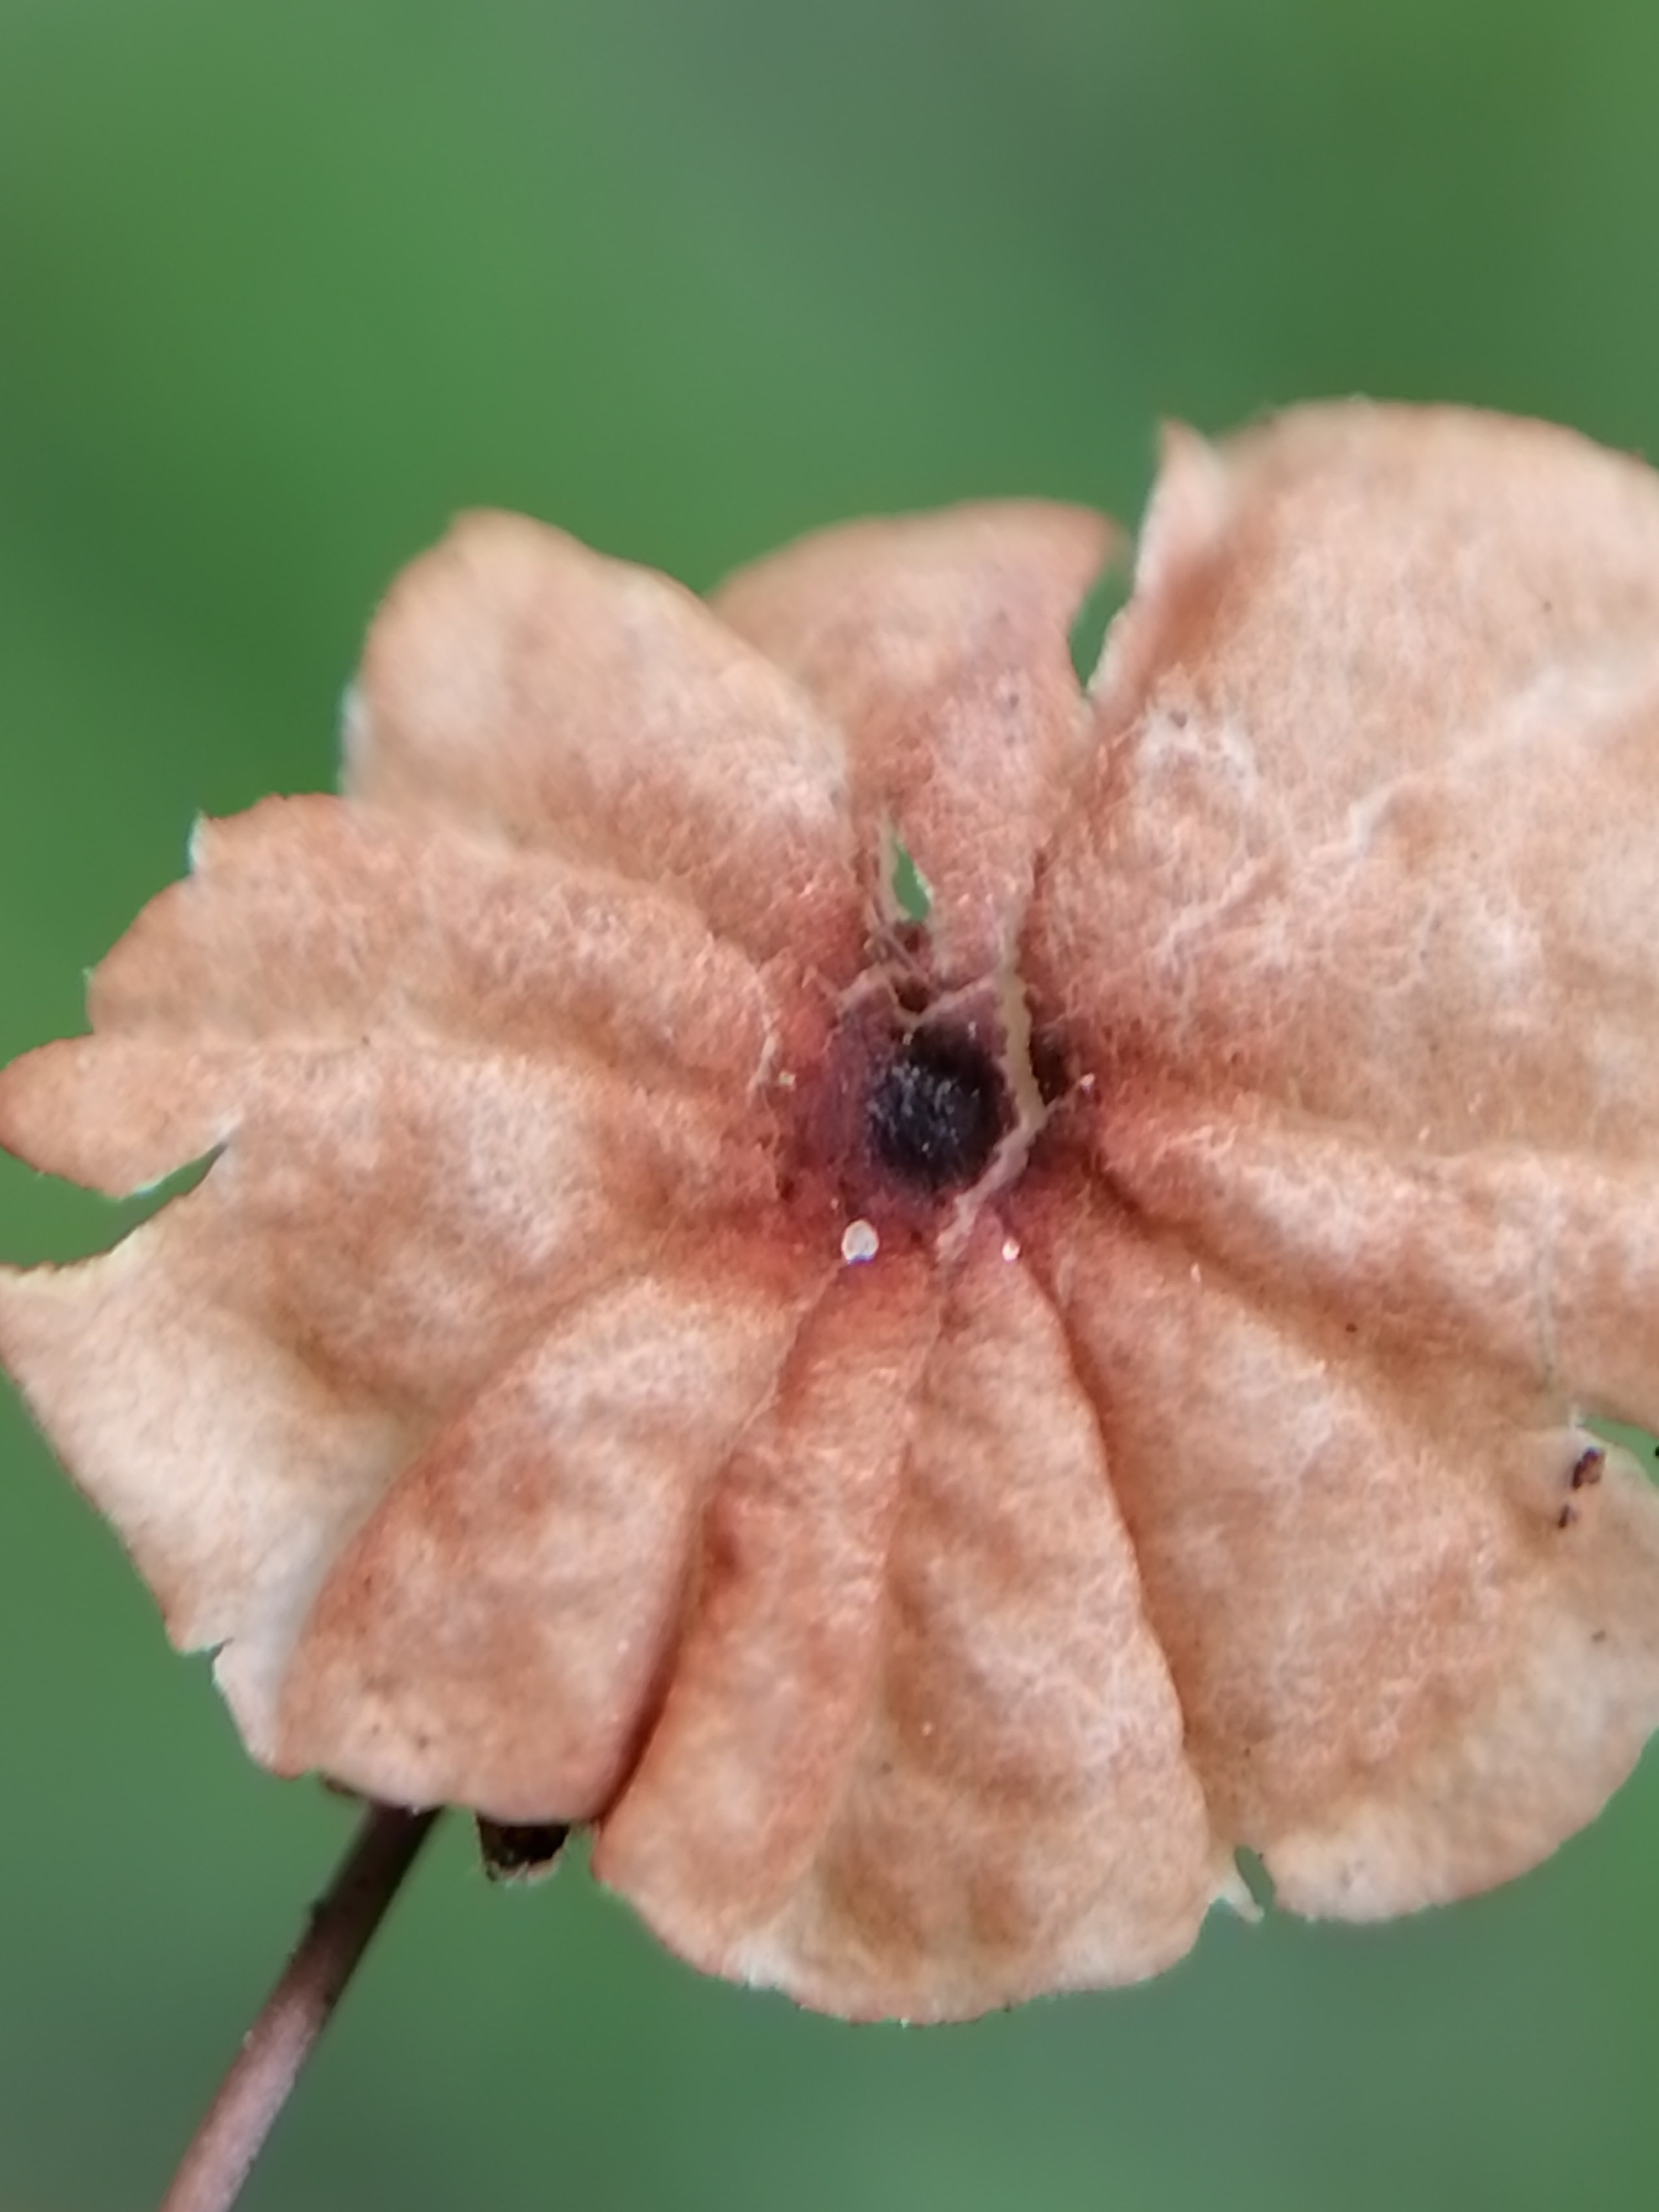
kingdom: Fungi
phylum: Basidiomycota
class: Agaricomycetes
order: Agaricales
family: Marasmiaceae
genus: Marasmius
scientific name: Marasmius curreyi
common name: teglrød bruskhat
